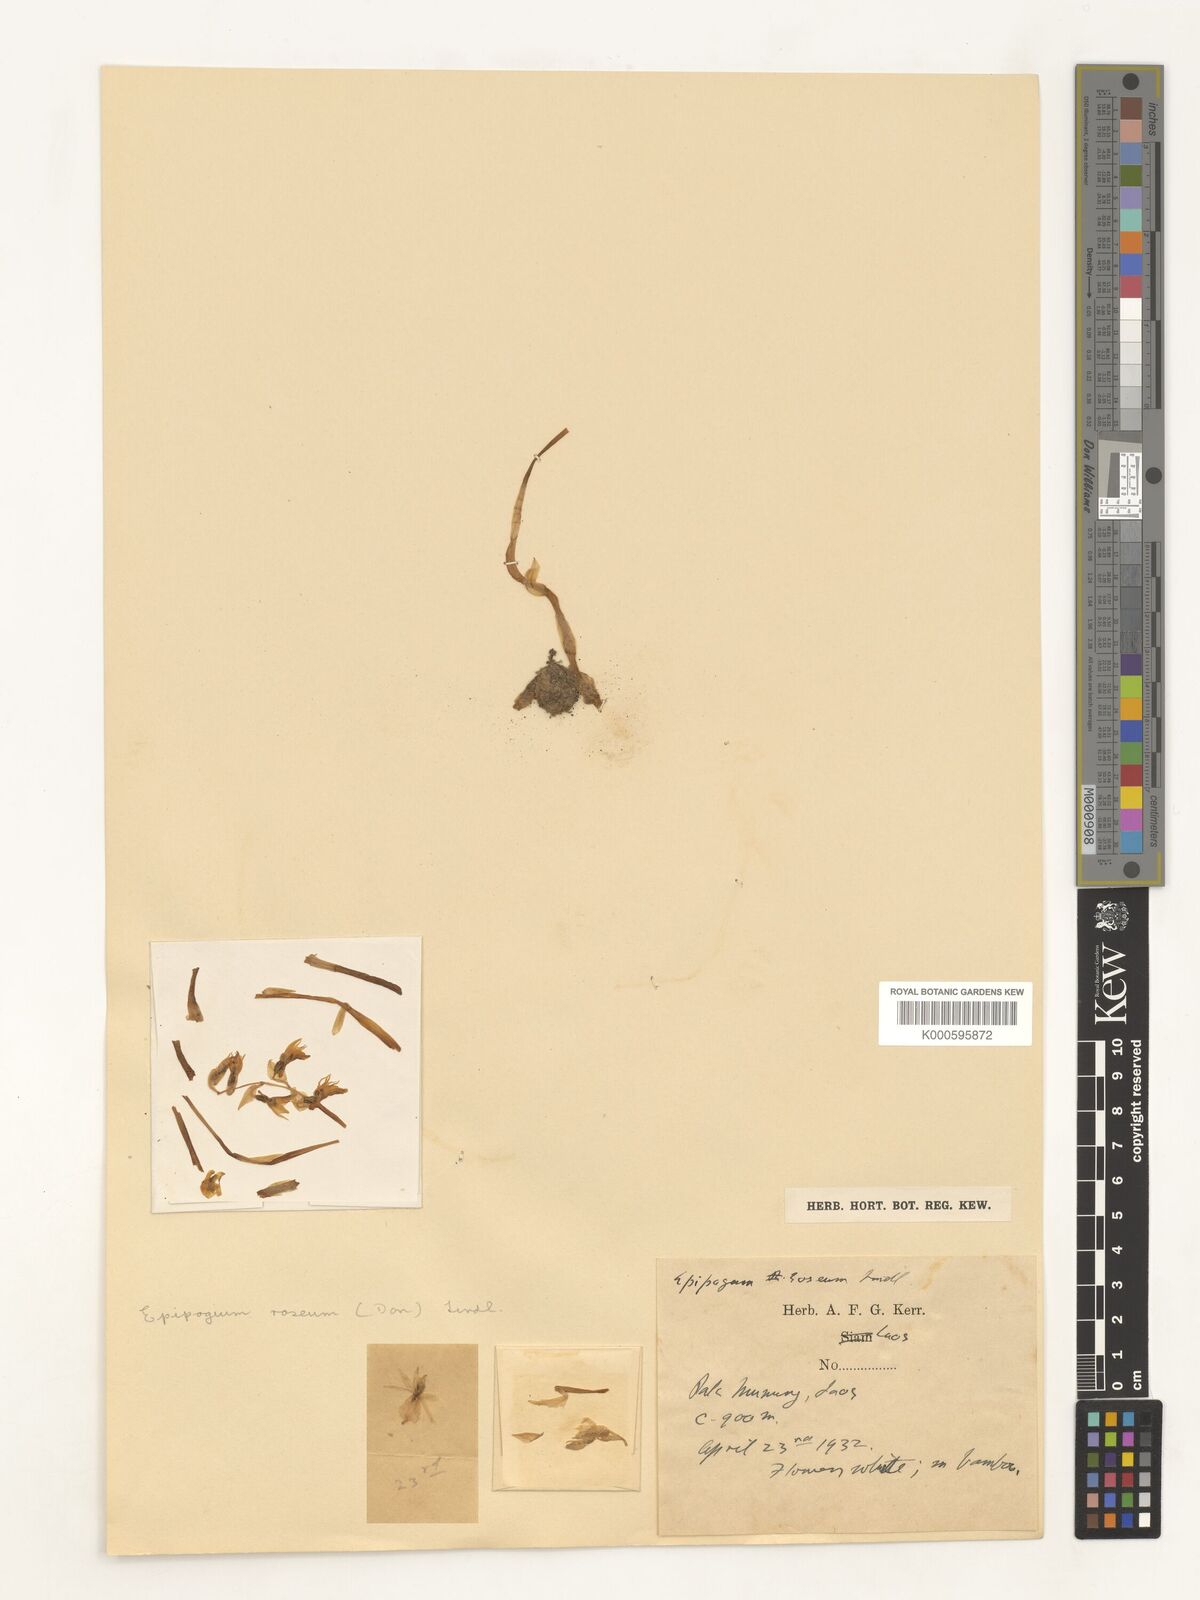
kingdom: Plantae
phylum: Tracheophyta
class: Liliopsida
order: Asparagales
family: Orchidaceae
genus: Epipogium
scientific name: Epipogium roseum
